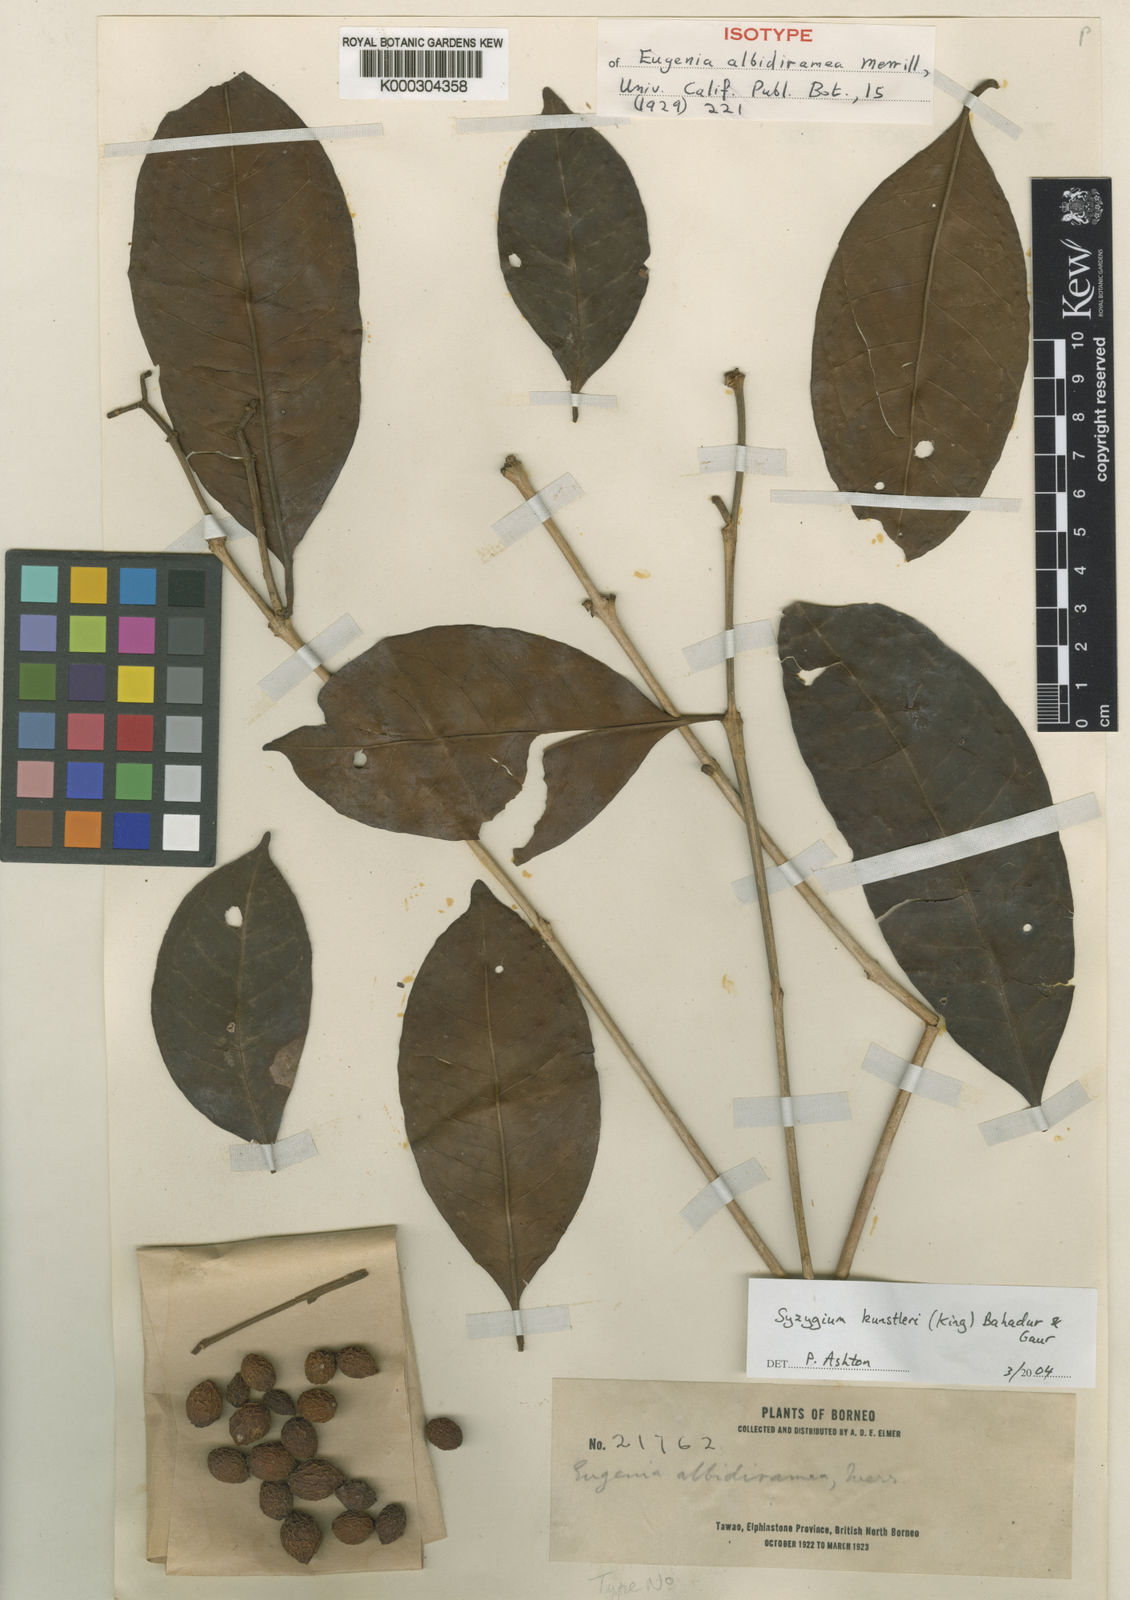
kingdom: Plantae
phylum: Tracheophyta
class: Magnoliopsida
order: Myrtales
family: Myrtaceae
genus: Syzygium
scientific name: Syzygium kunstleri
